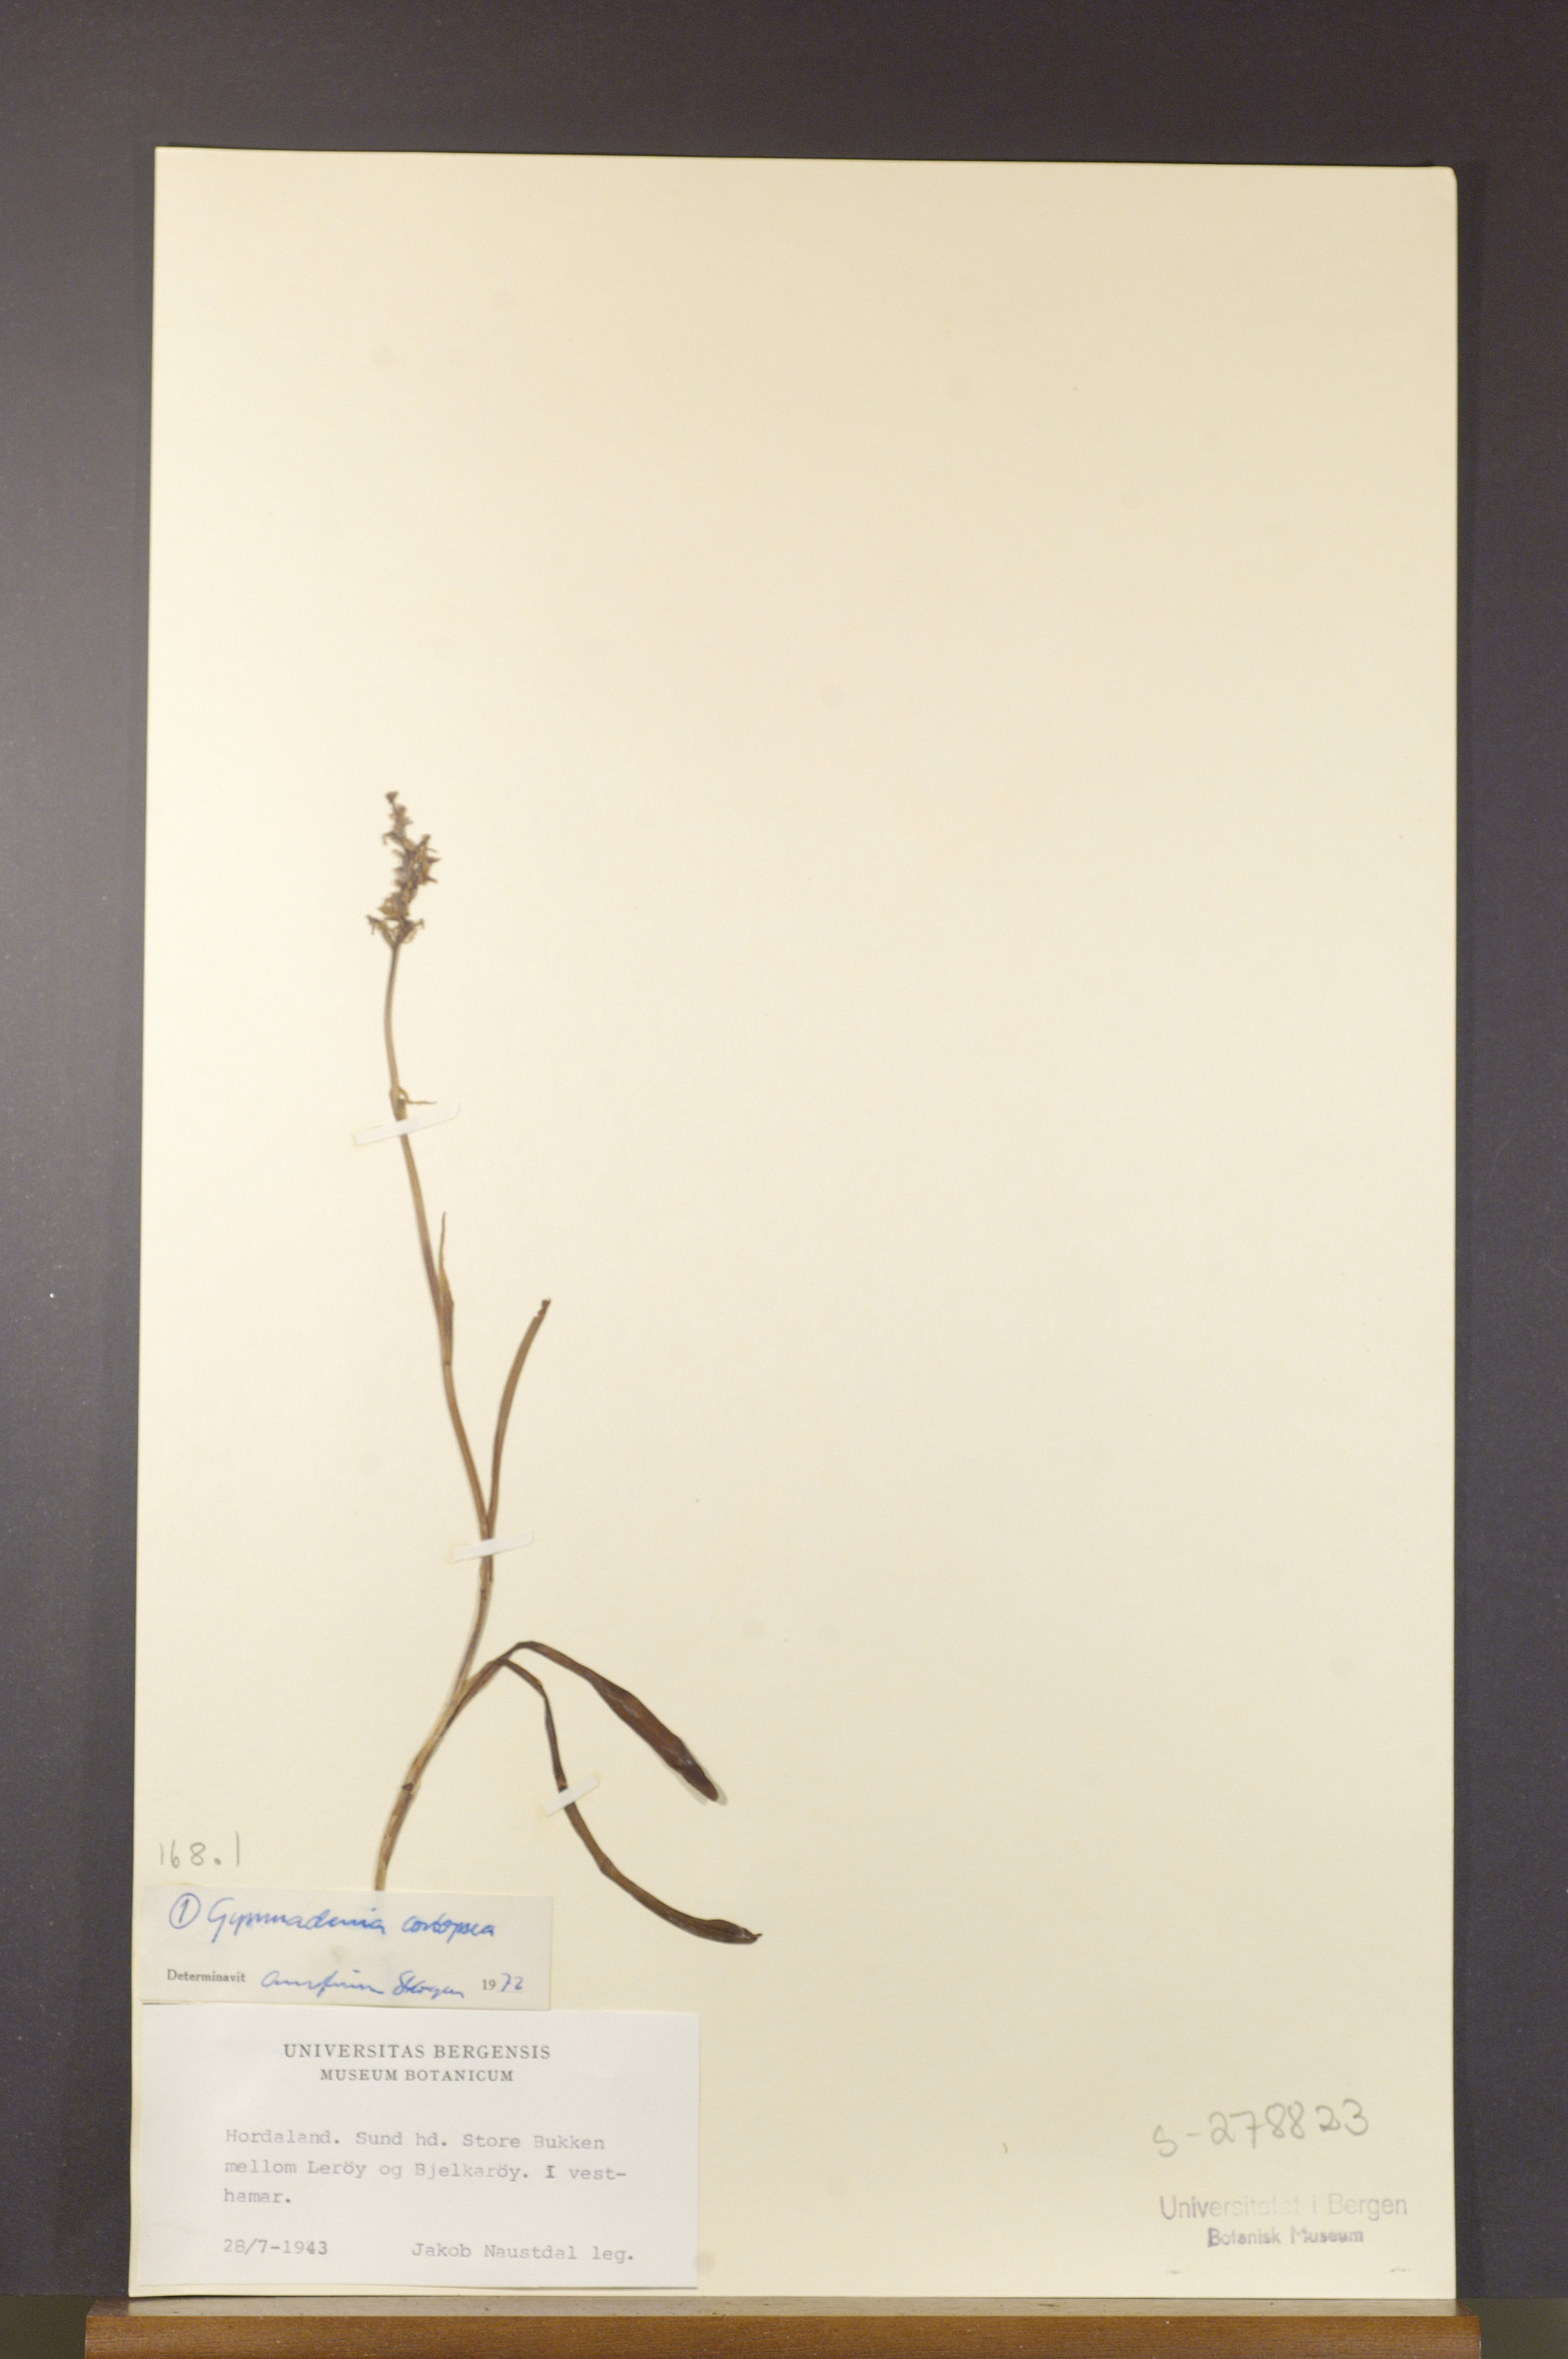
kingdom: Plantae
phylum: Tracheophyta
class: Liliopsida
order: Asparagales
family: Orchidaceae
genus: Gymnadenia
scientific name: Gymnadenia conopsea
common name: Fragrant orchid
